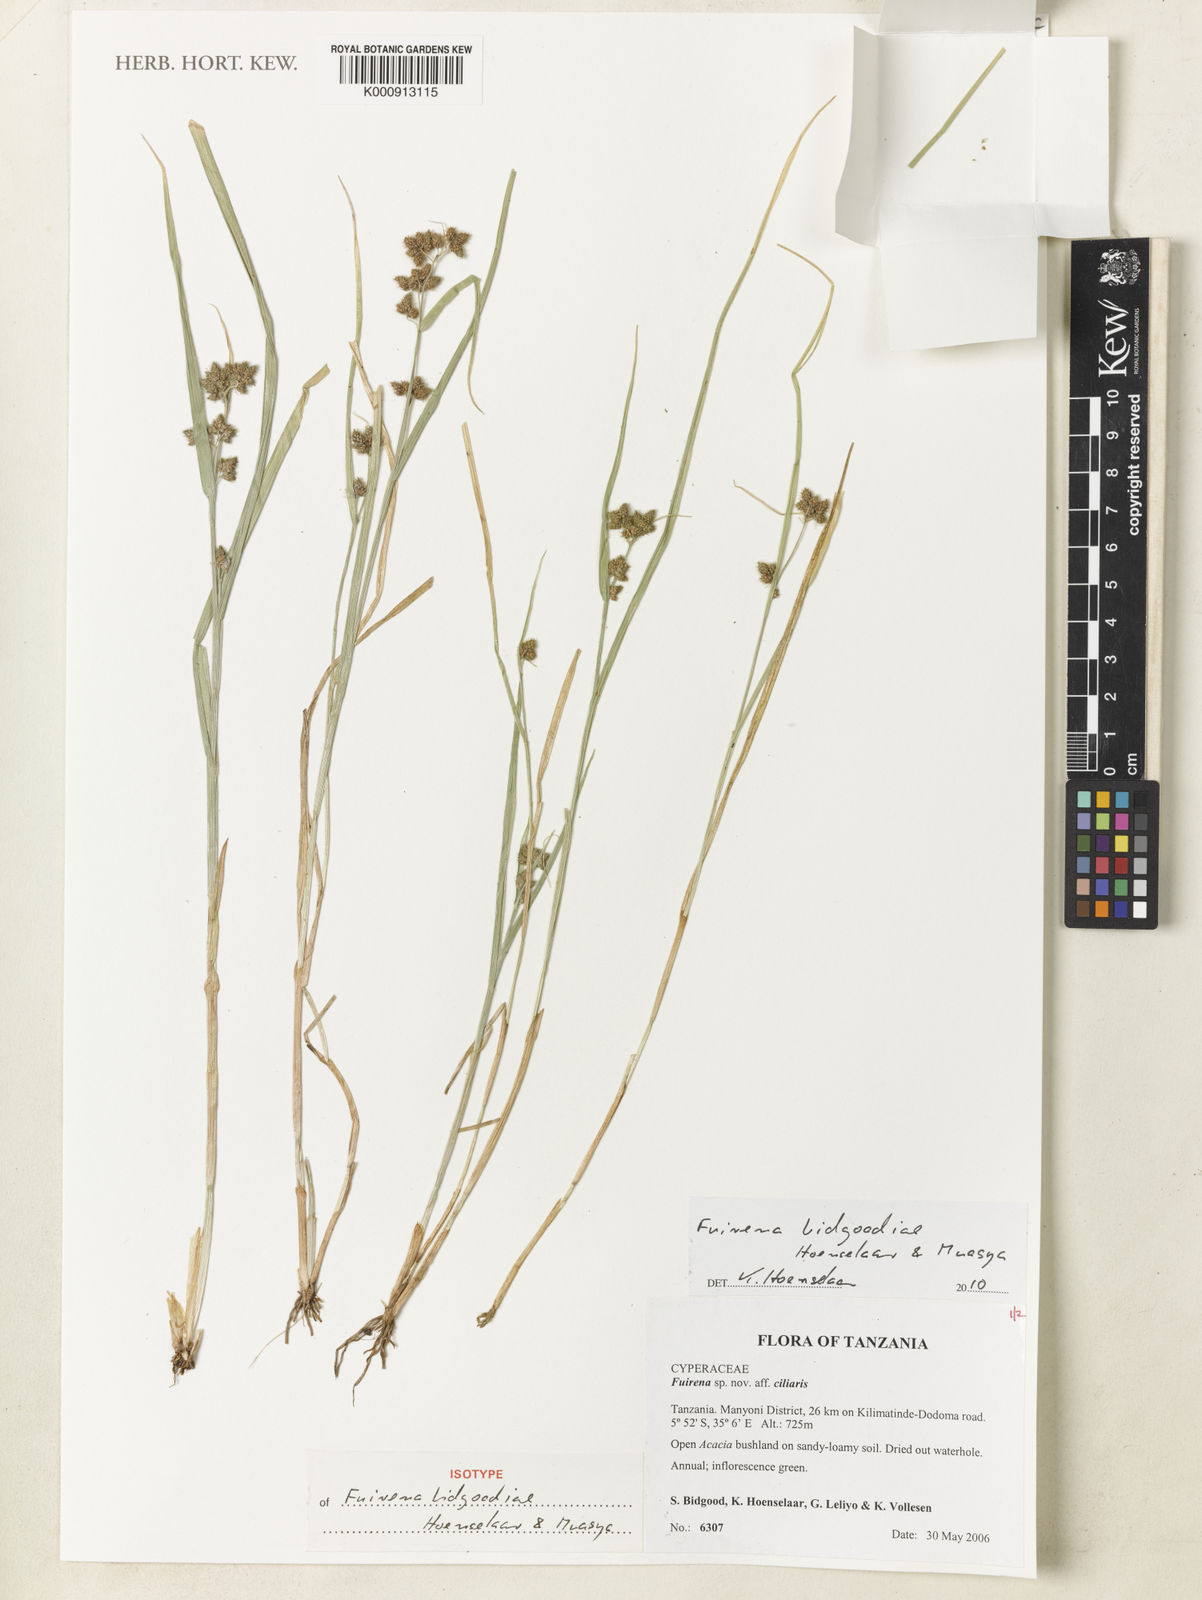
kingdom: Plantae
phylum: Tracheophyta
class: Liliopsida
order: Poales
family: Cyperaceae
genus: Fuirena
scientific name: Fuirena bidgoodiae
